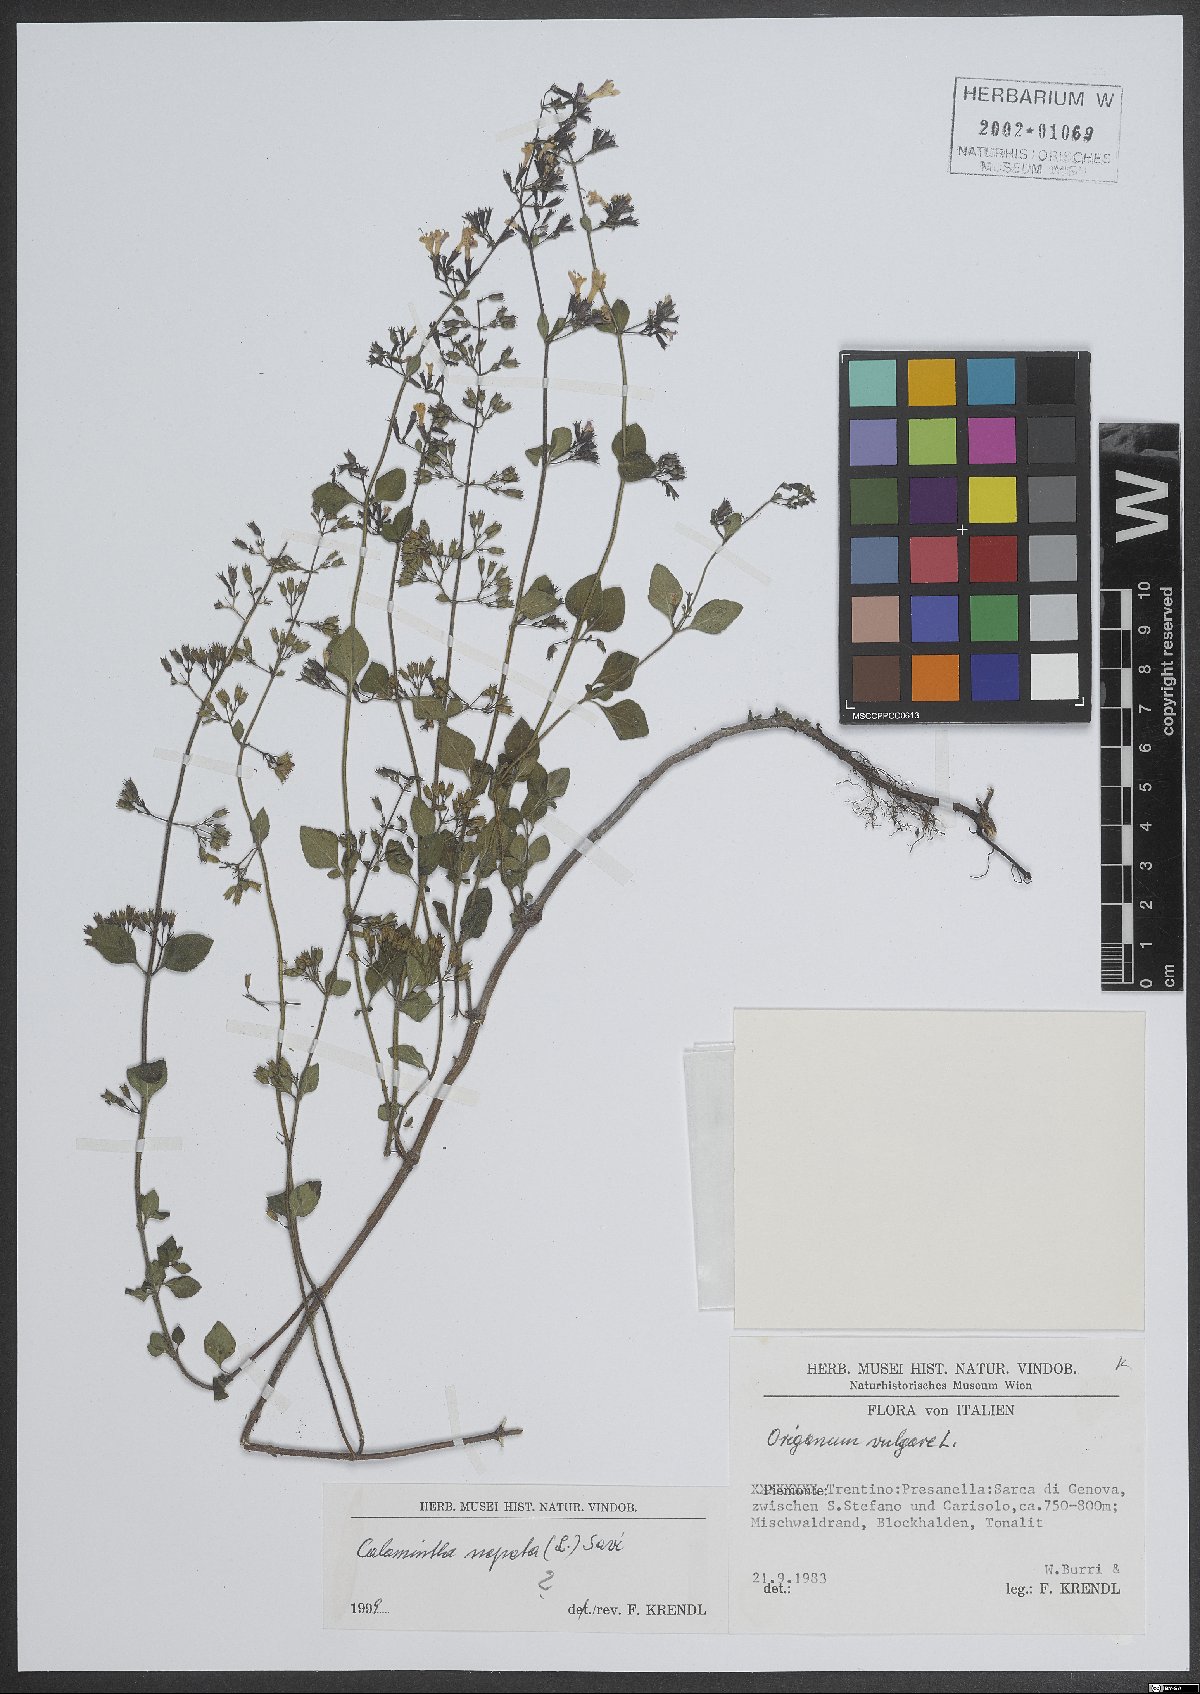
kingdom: Plantae
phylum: Tracheophyta
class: Magnoliopsida
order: Lamiales
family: Lamiaceae
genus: Clinopodium
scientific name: Clinopodium nepeta
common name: Lesser calamint
